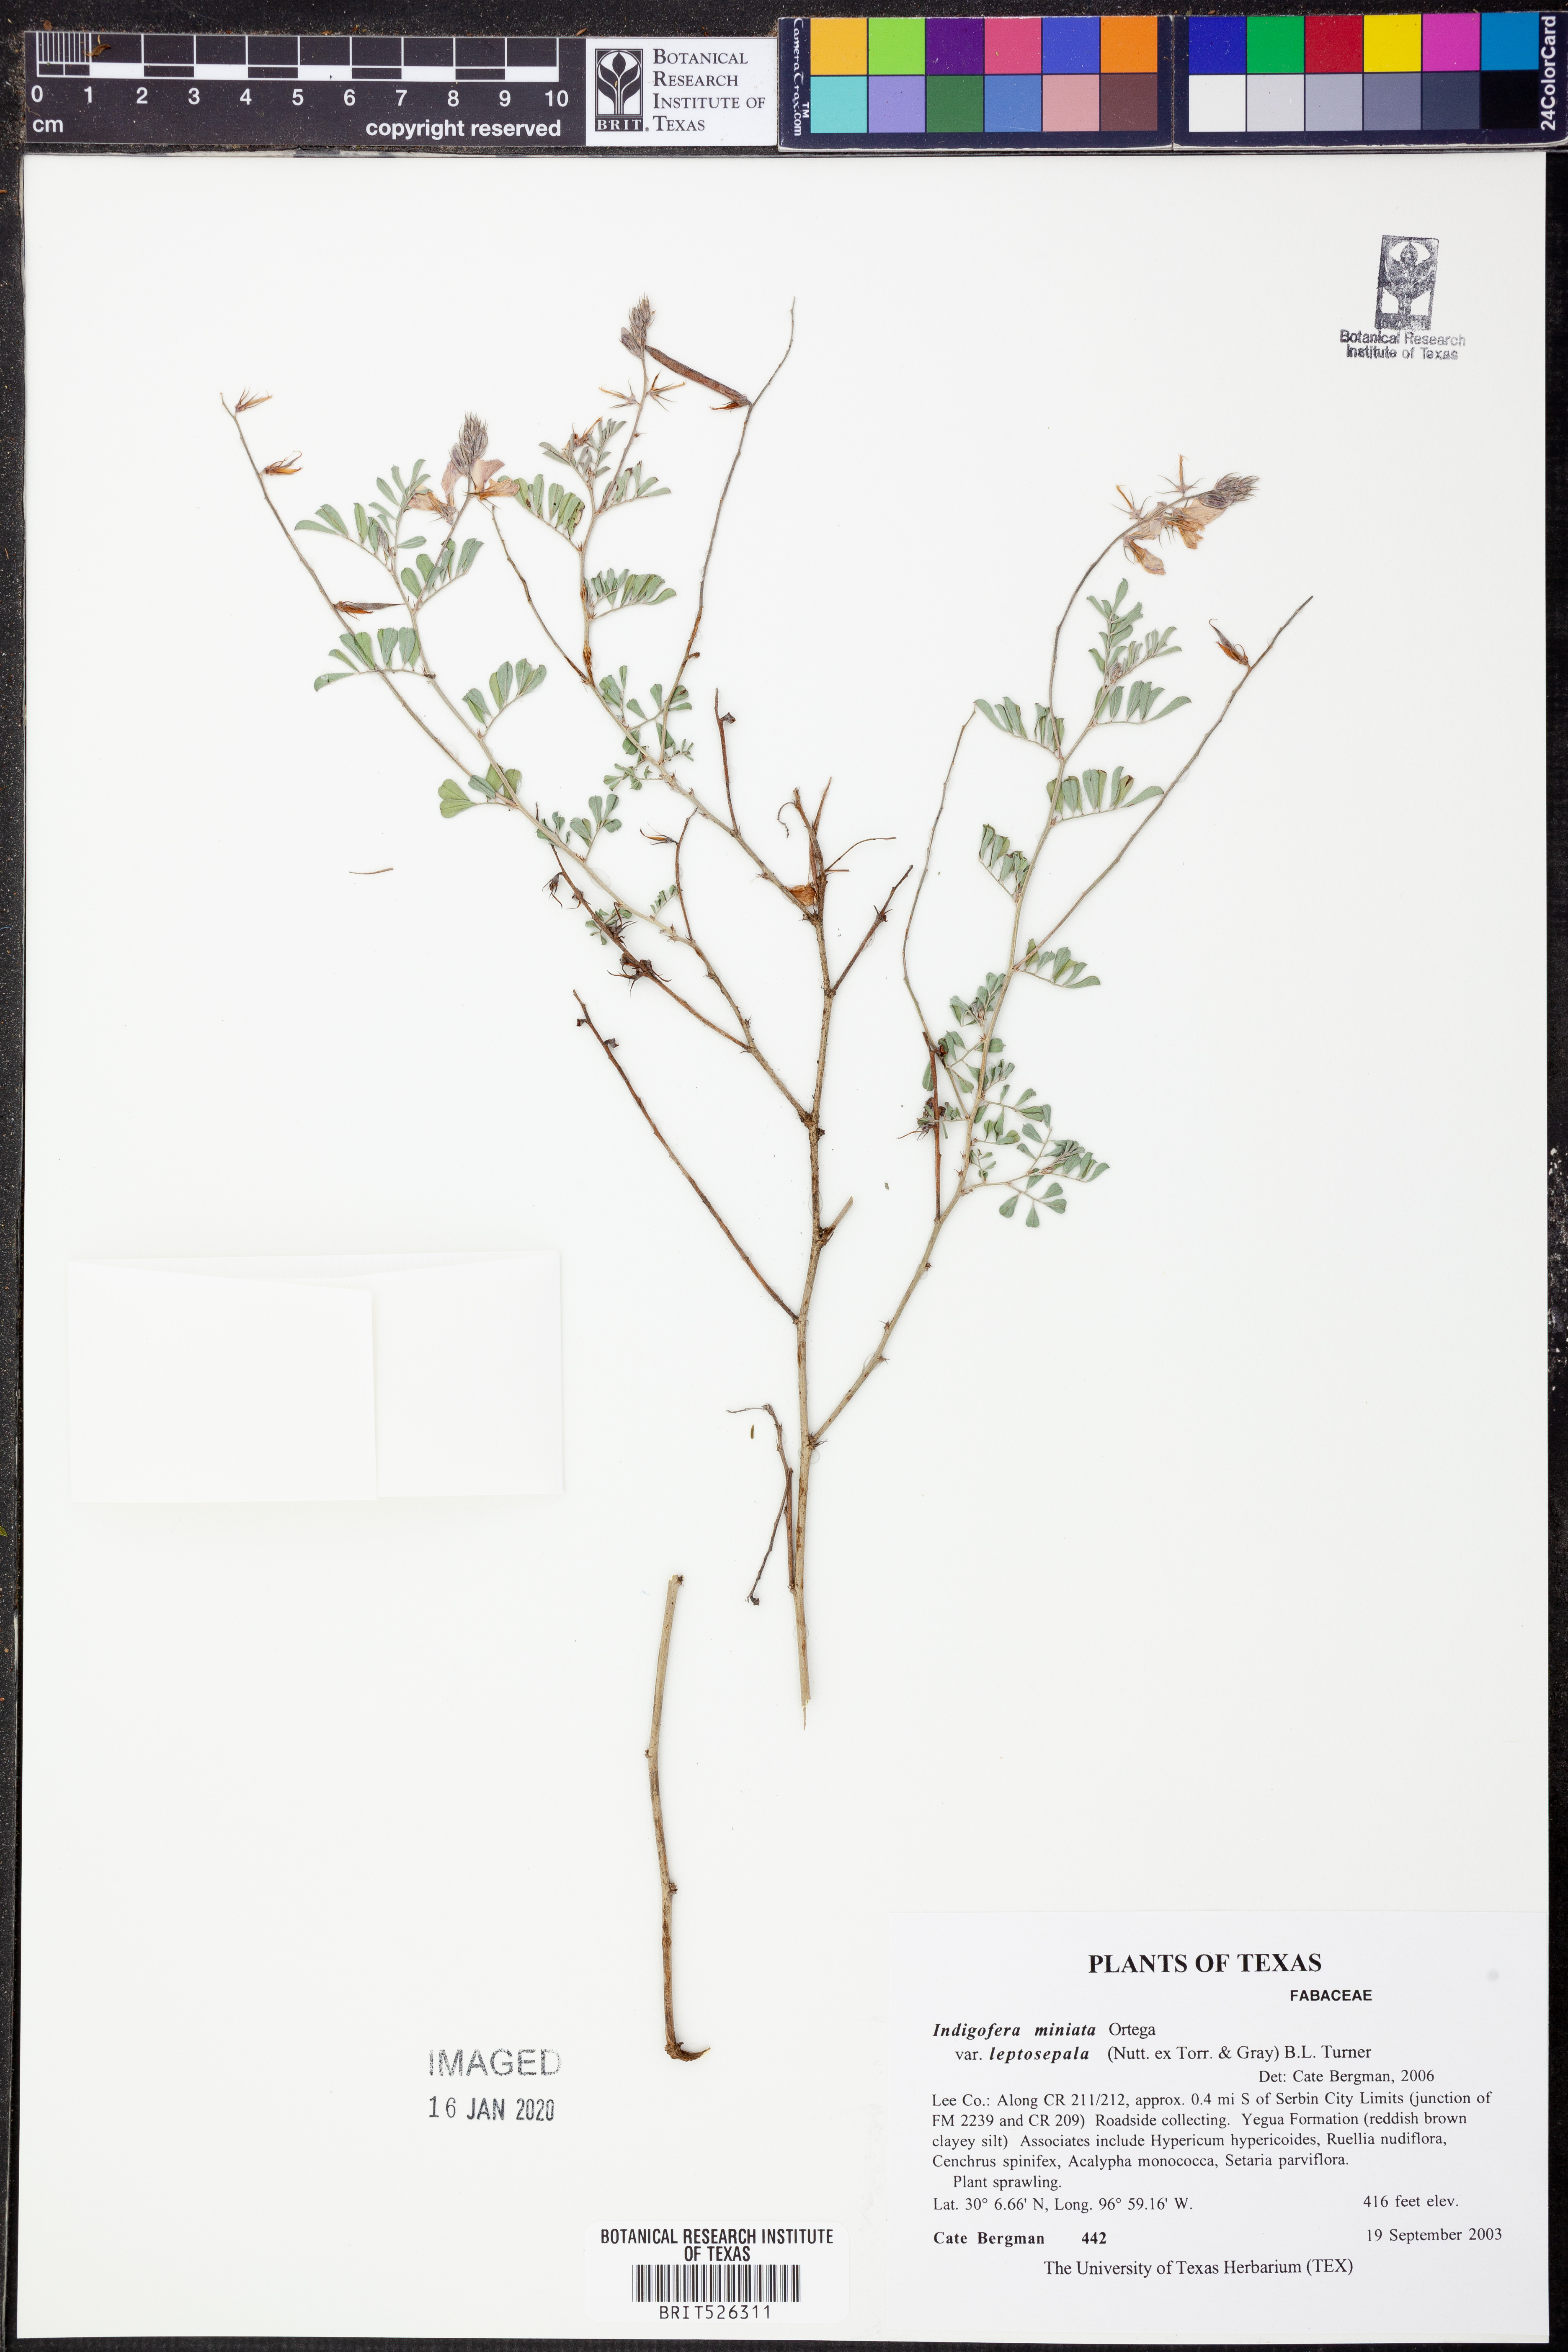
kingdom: Plantae
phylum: Tracheophyta
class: Magnoliopsida
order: Fabales
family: Fabaceae
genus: Indigofera
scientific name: Indigofera miniata
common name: Coast indigo
